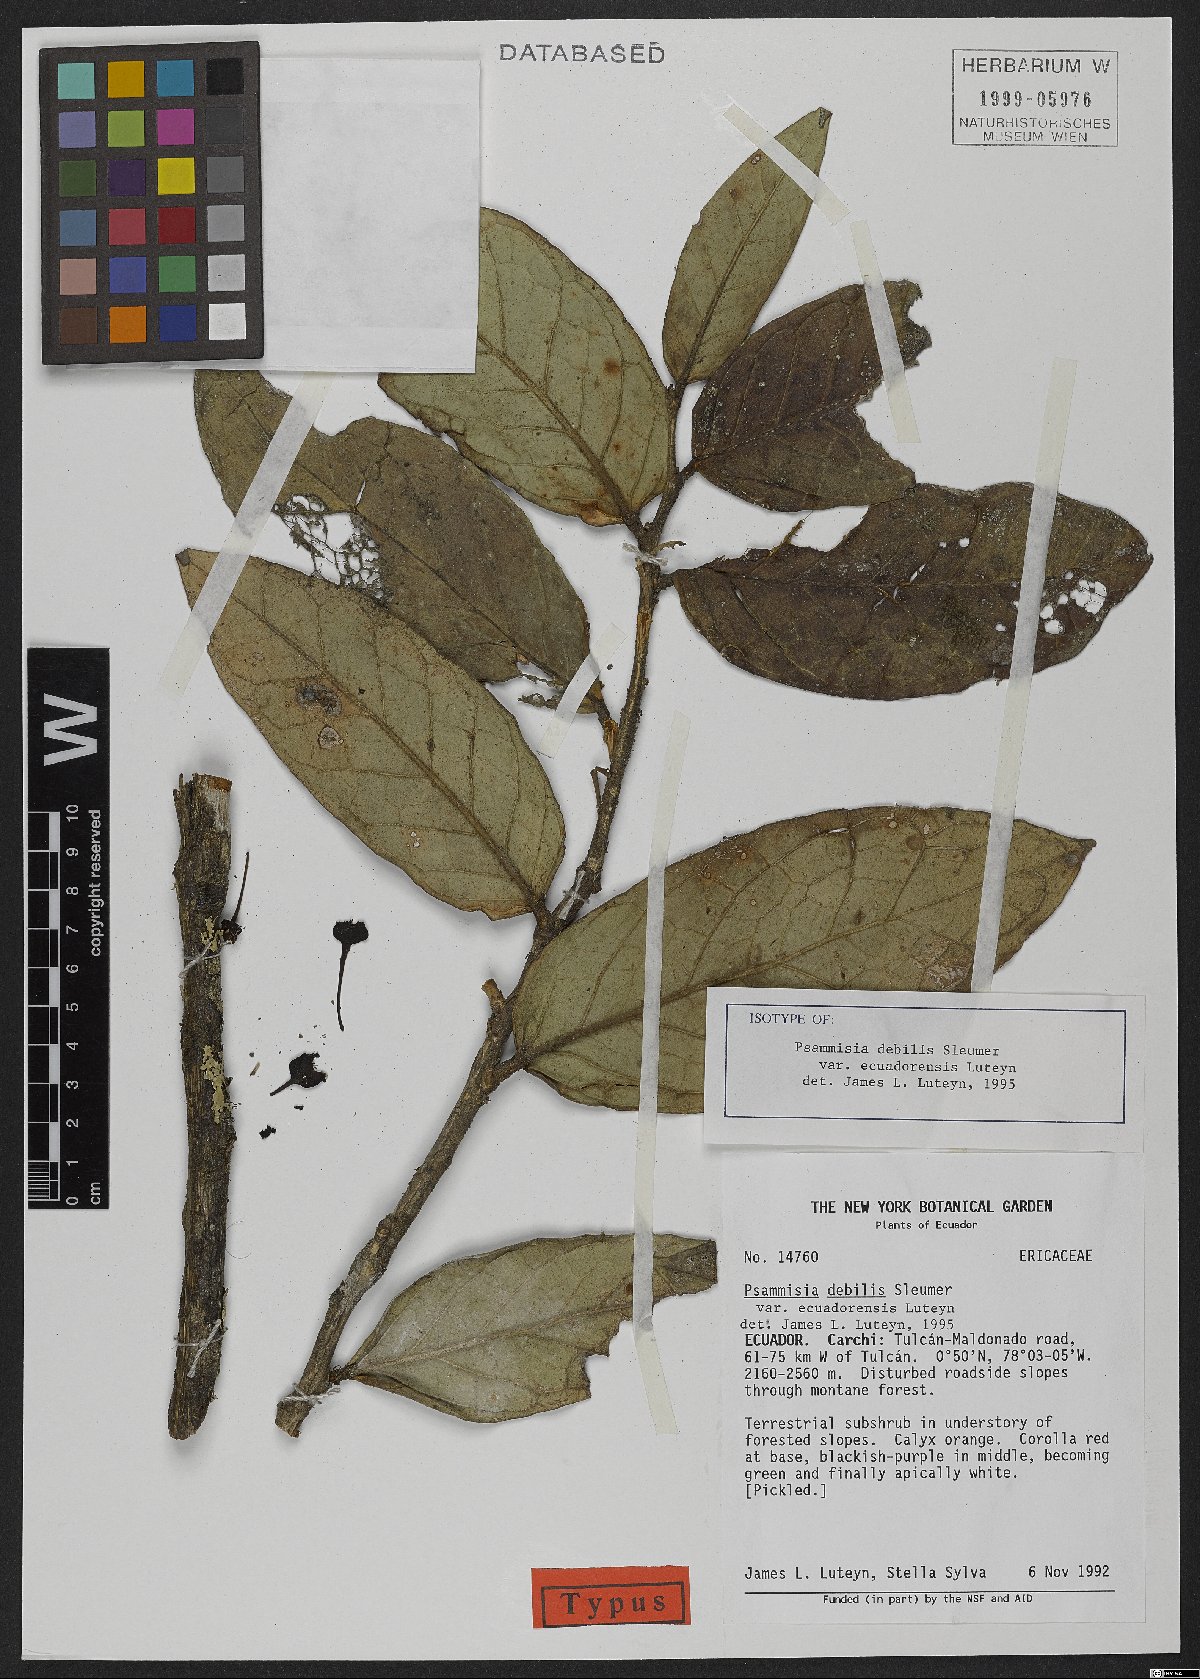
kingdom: Plantae
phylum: Tracheophyta
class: Magnoliopsida
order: Ericales
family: Ericaceae
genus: Psammisia
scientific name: Psammisia debilis
